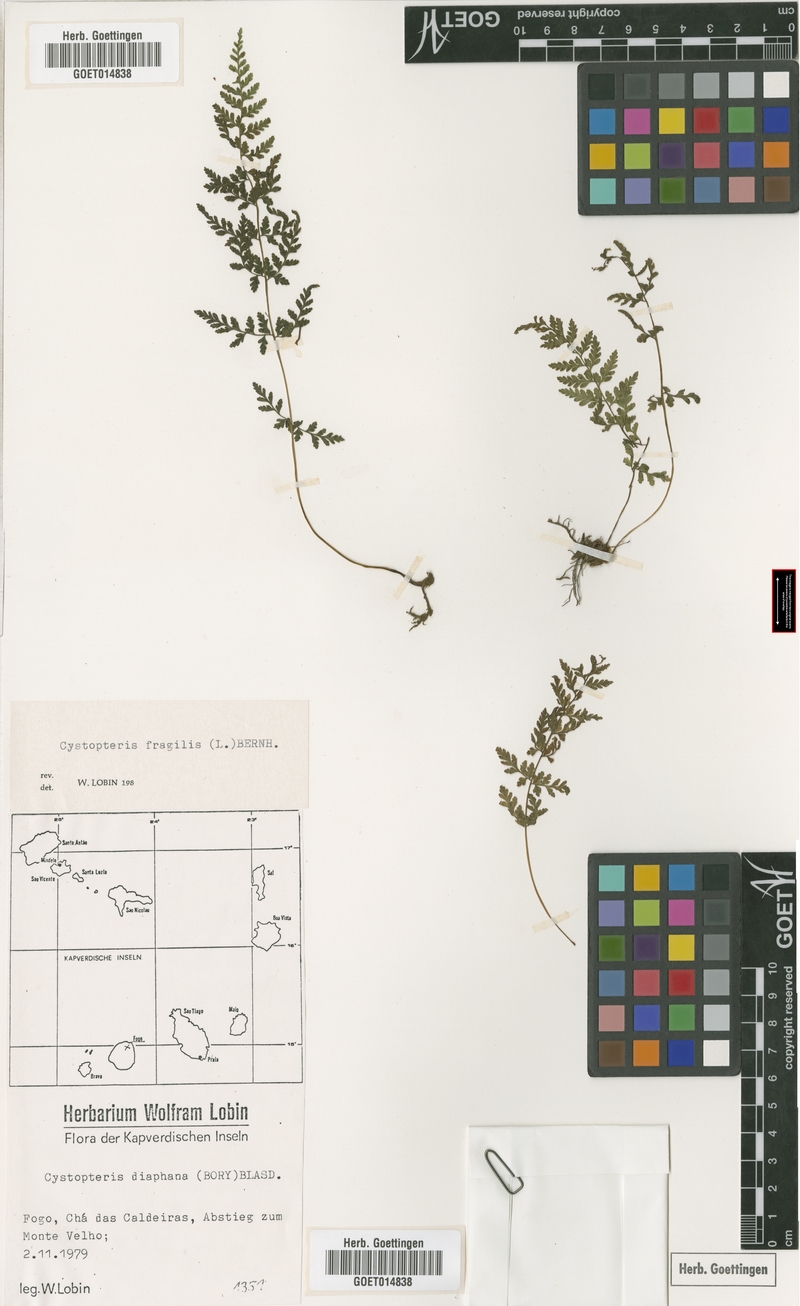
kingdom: Plantae
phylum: Tracheophyta
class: Polypodiopsida
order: Polypodiales
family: Cystopteridaceae
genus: Cystopteris
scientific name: Cystopteris fragilis
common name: Brittle bladder fern
